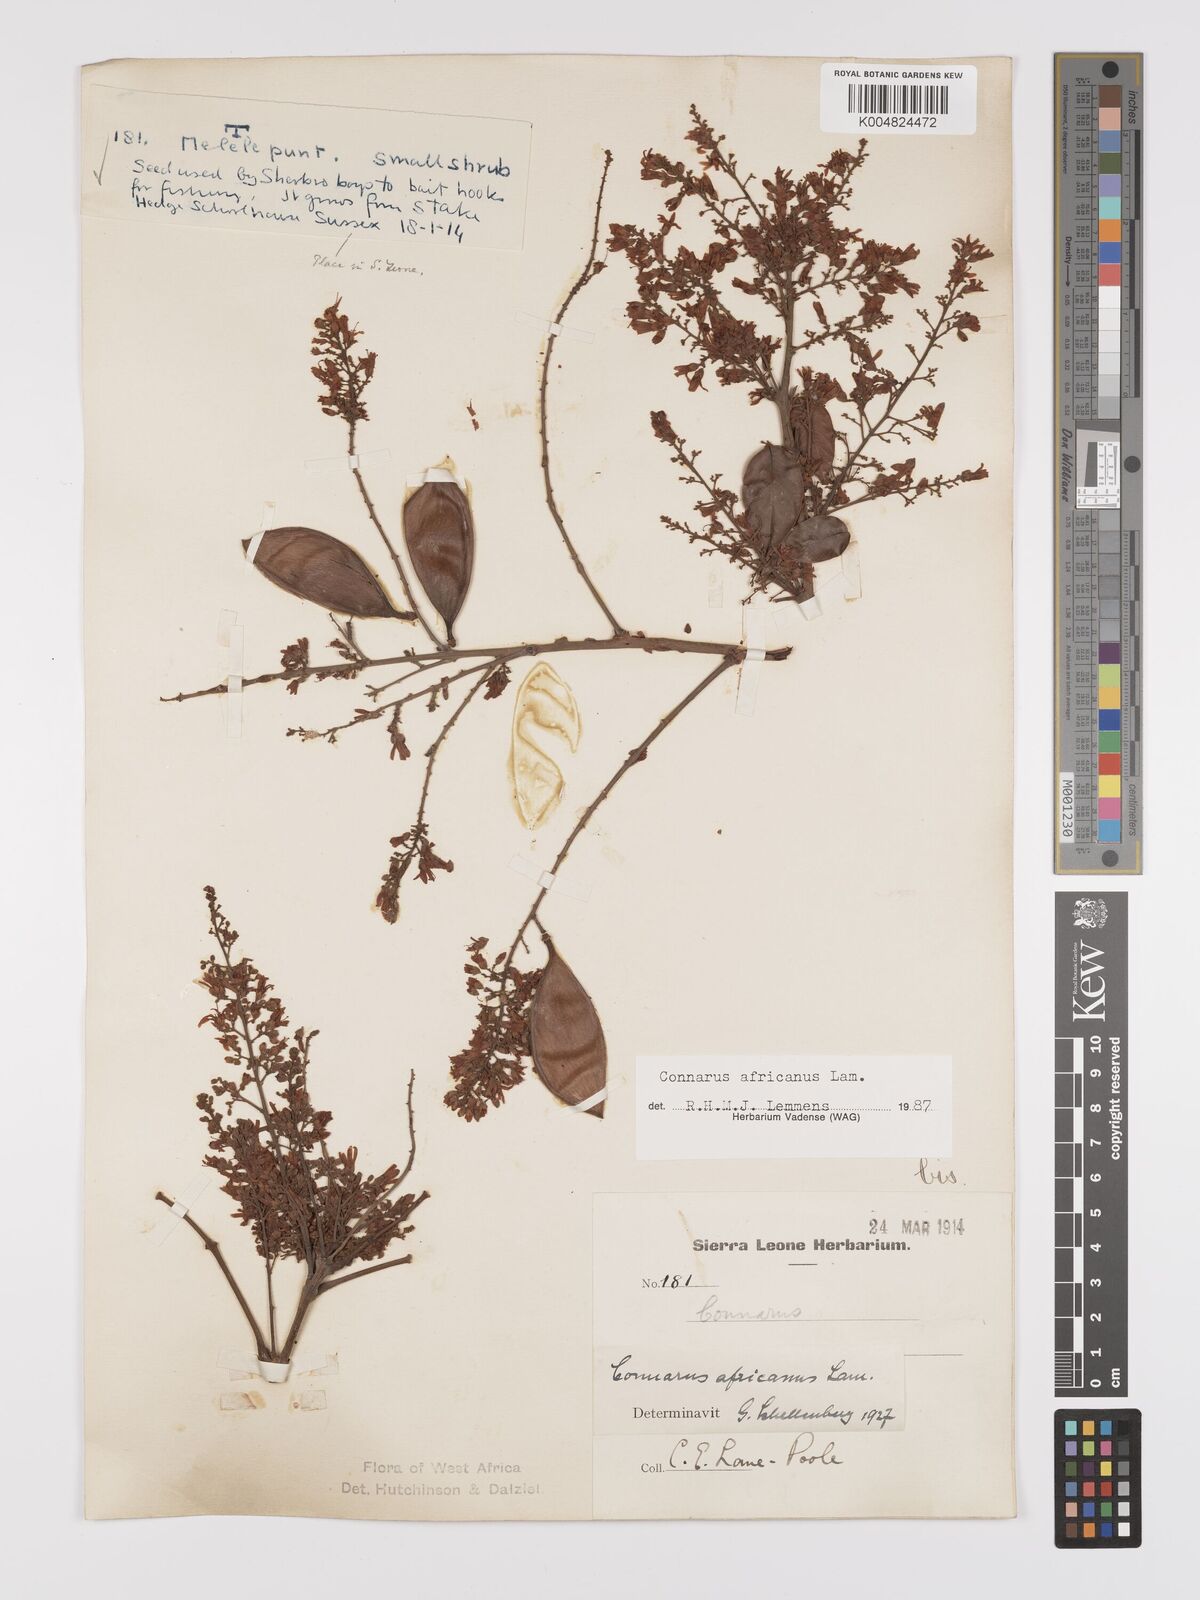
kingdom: Plantae
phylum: Tracheophyta
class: Magnoliopsida
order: Oxalidales
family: Connaraceae
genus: Connarus
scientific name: Connarus africanus
